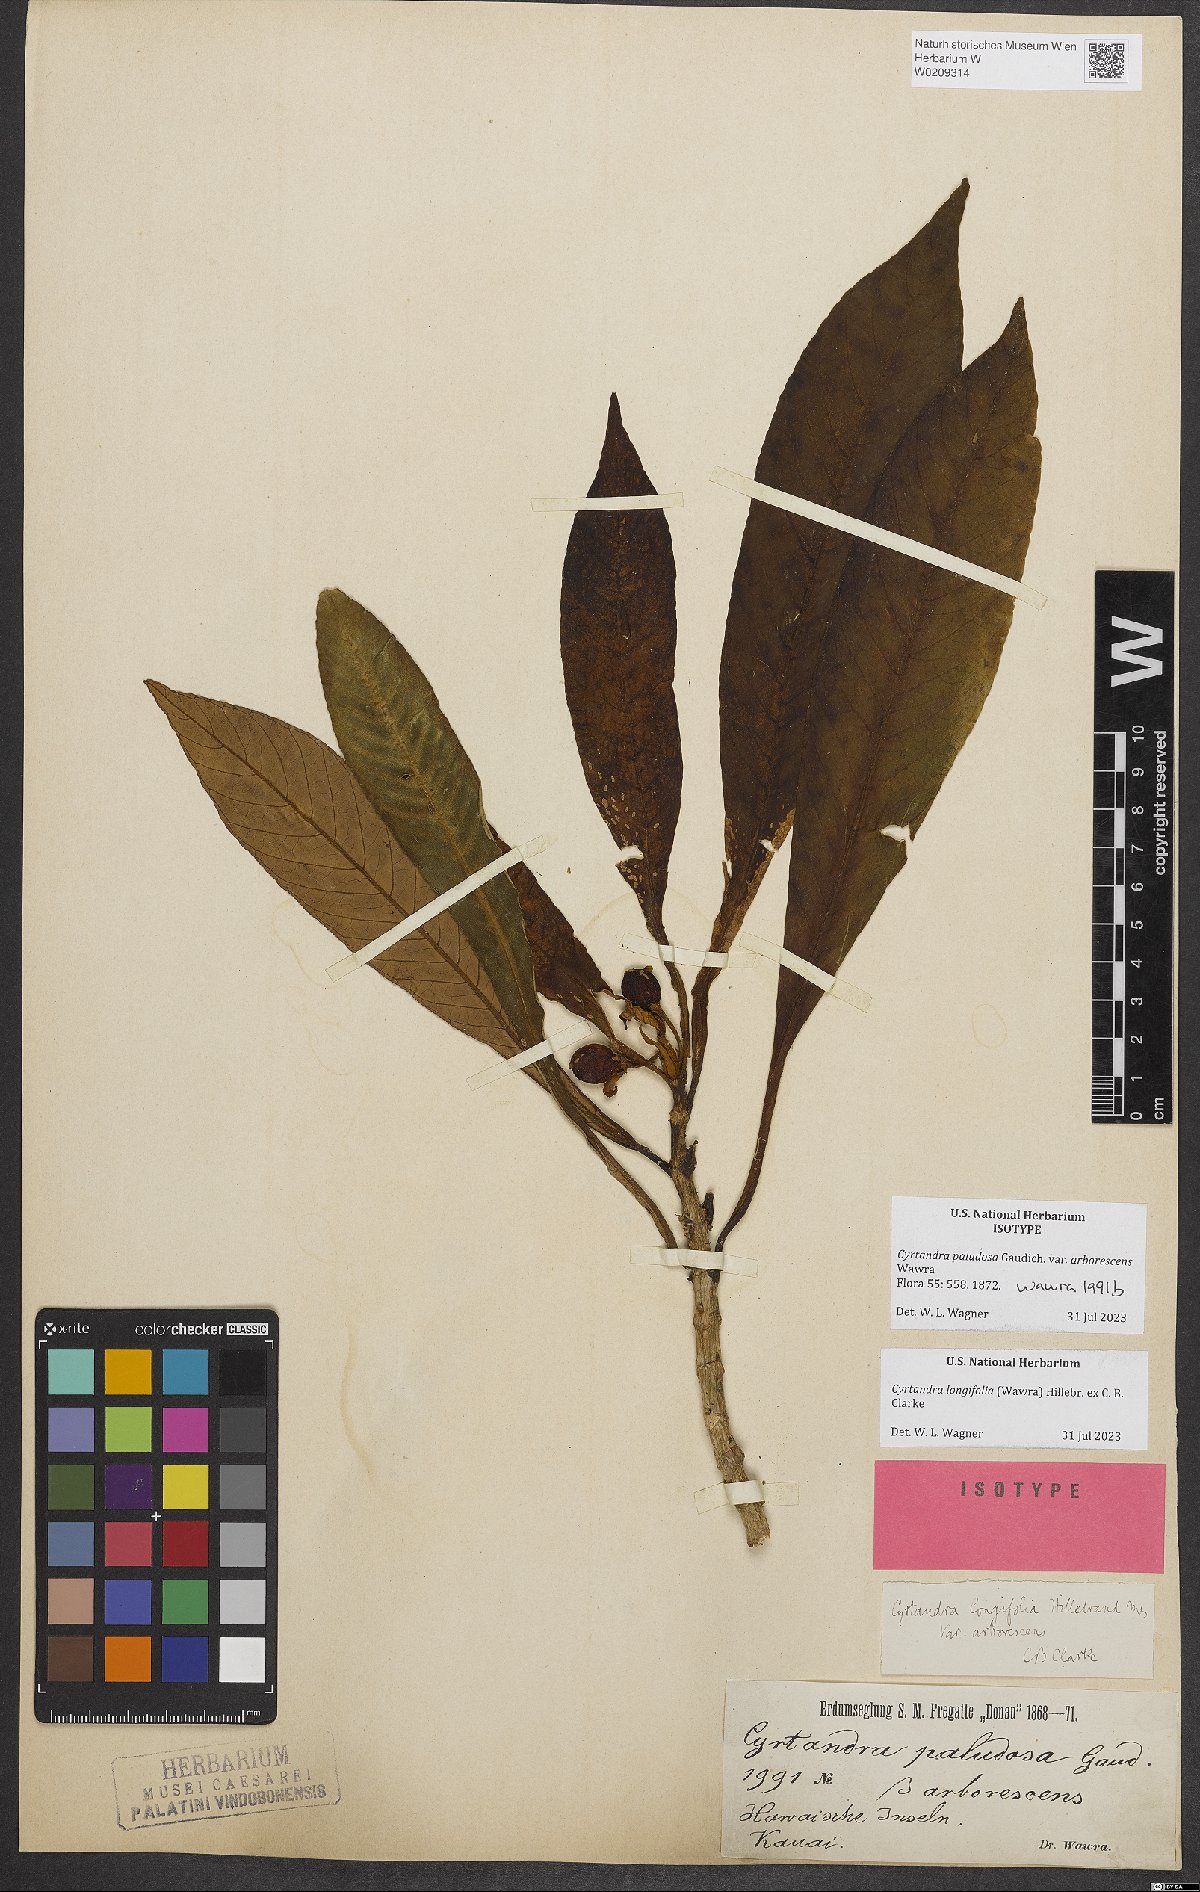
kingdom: Plantae
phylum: Tracheophyta
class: Magnoliopsida
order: Lamiales
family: Gesneriaceae
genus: Cyrtandra
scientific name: Cyrtandra paludosa
